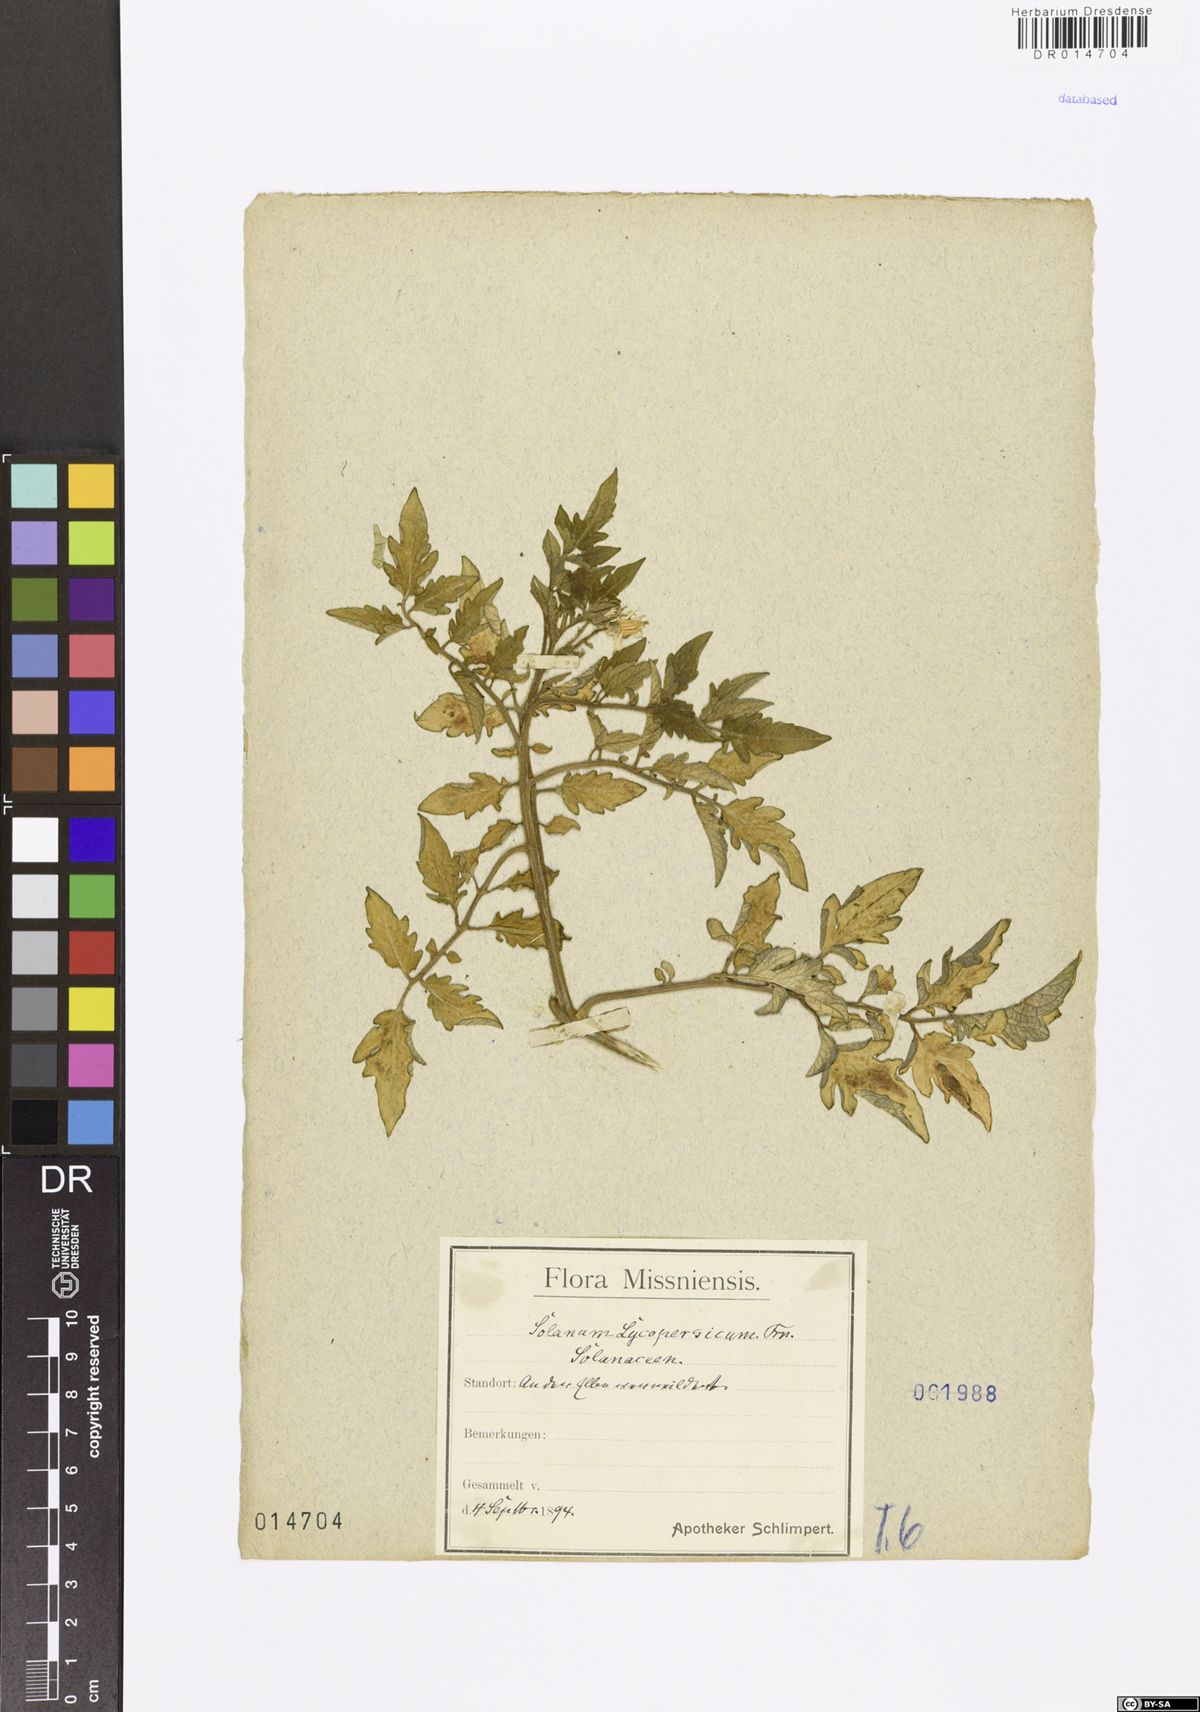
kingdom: Plantae
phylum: Tracheophyta
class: Magnoliopsida
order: Solanales
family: Solanaceae
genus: Solanum
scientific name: Solanum
